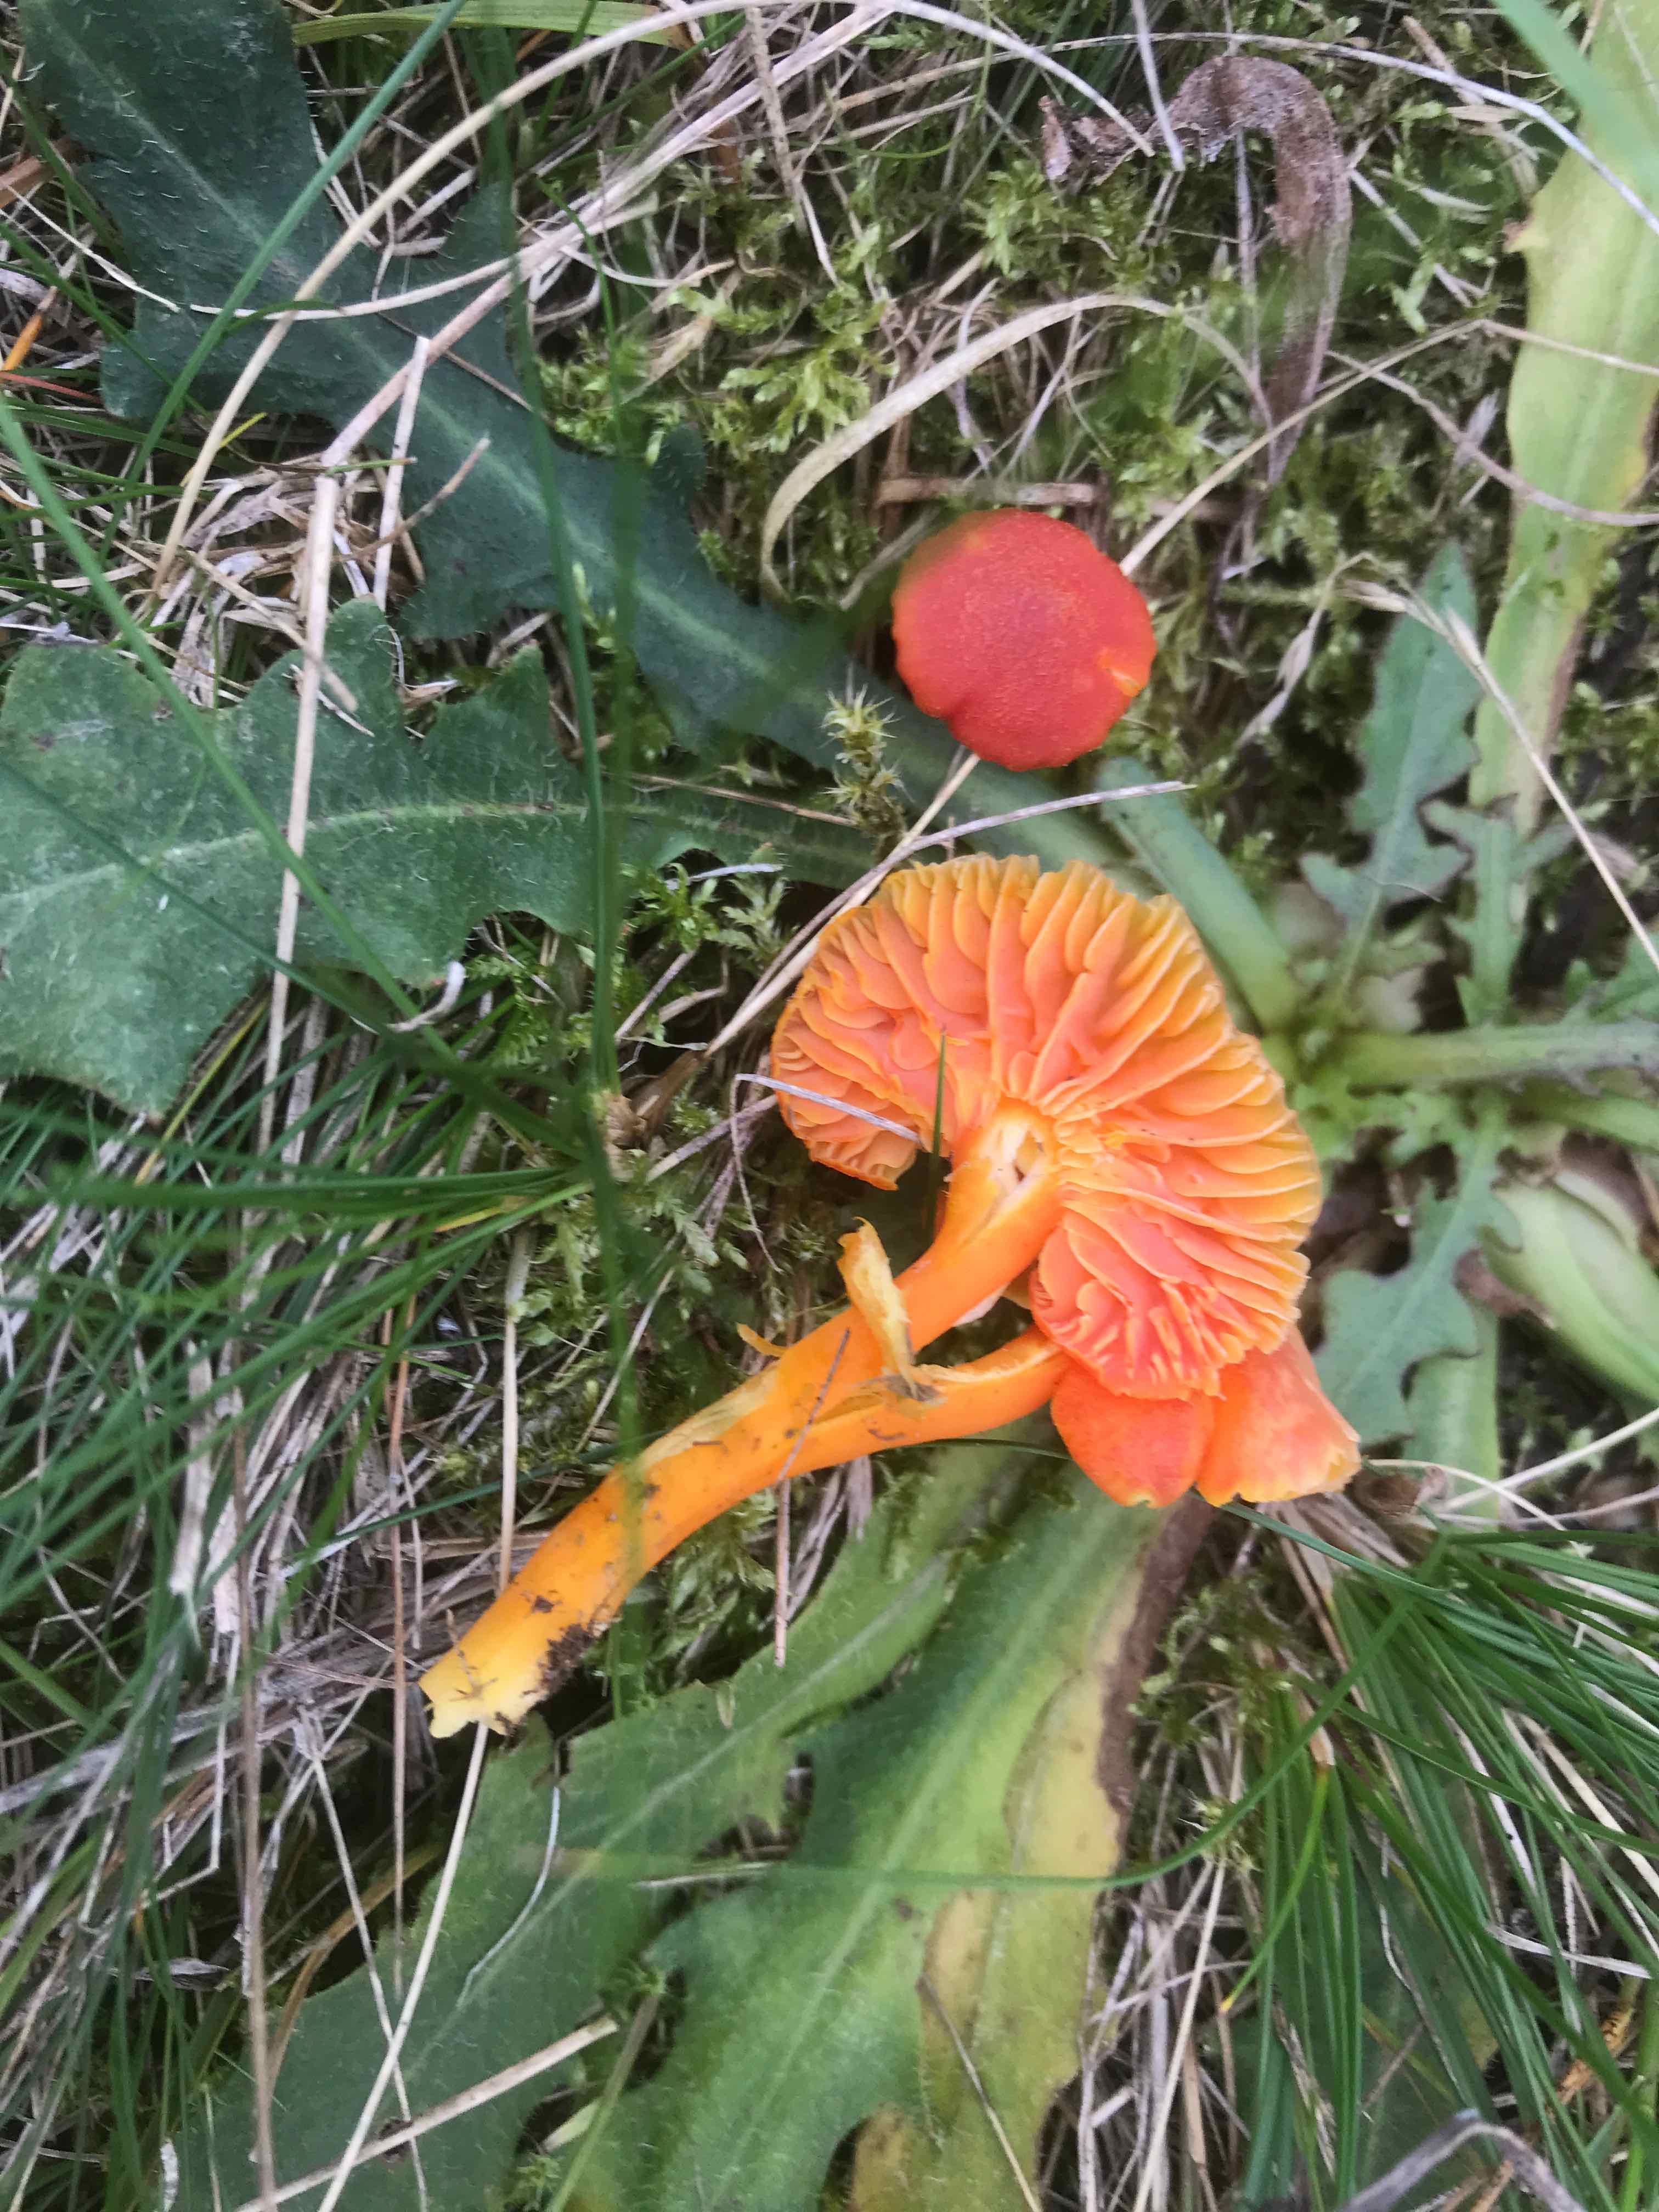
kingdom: Fungi
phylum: Basidiomycota
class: Agaricomycetes
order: Agaricales
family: Hygrophoraceae
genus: Hygrocybe
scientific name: Hygrocybe miniata
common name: mønje-vokshat
